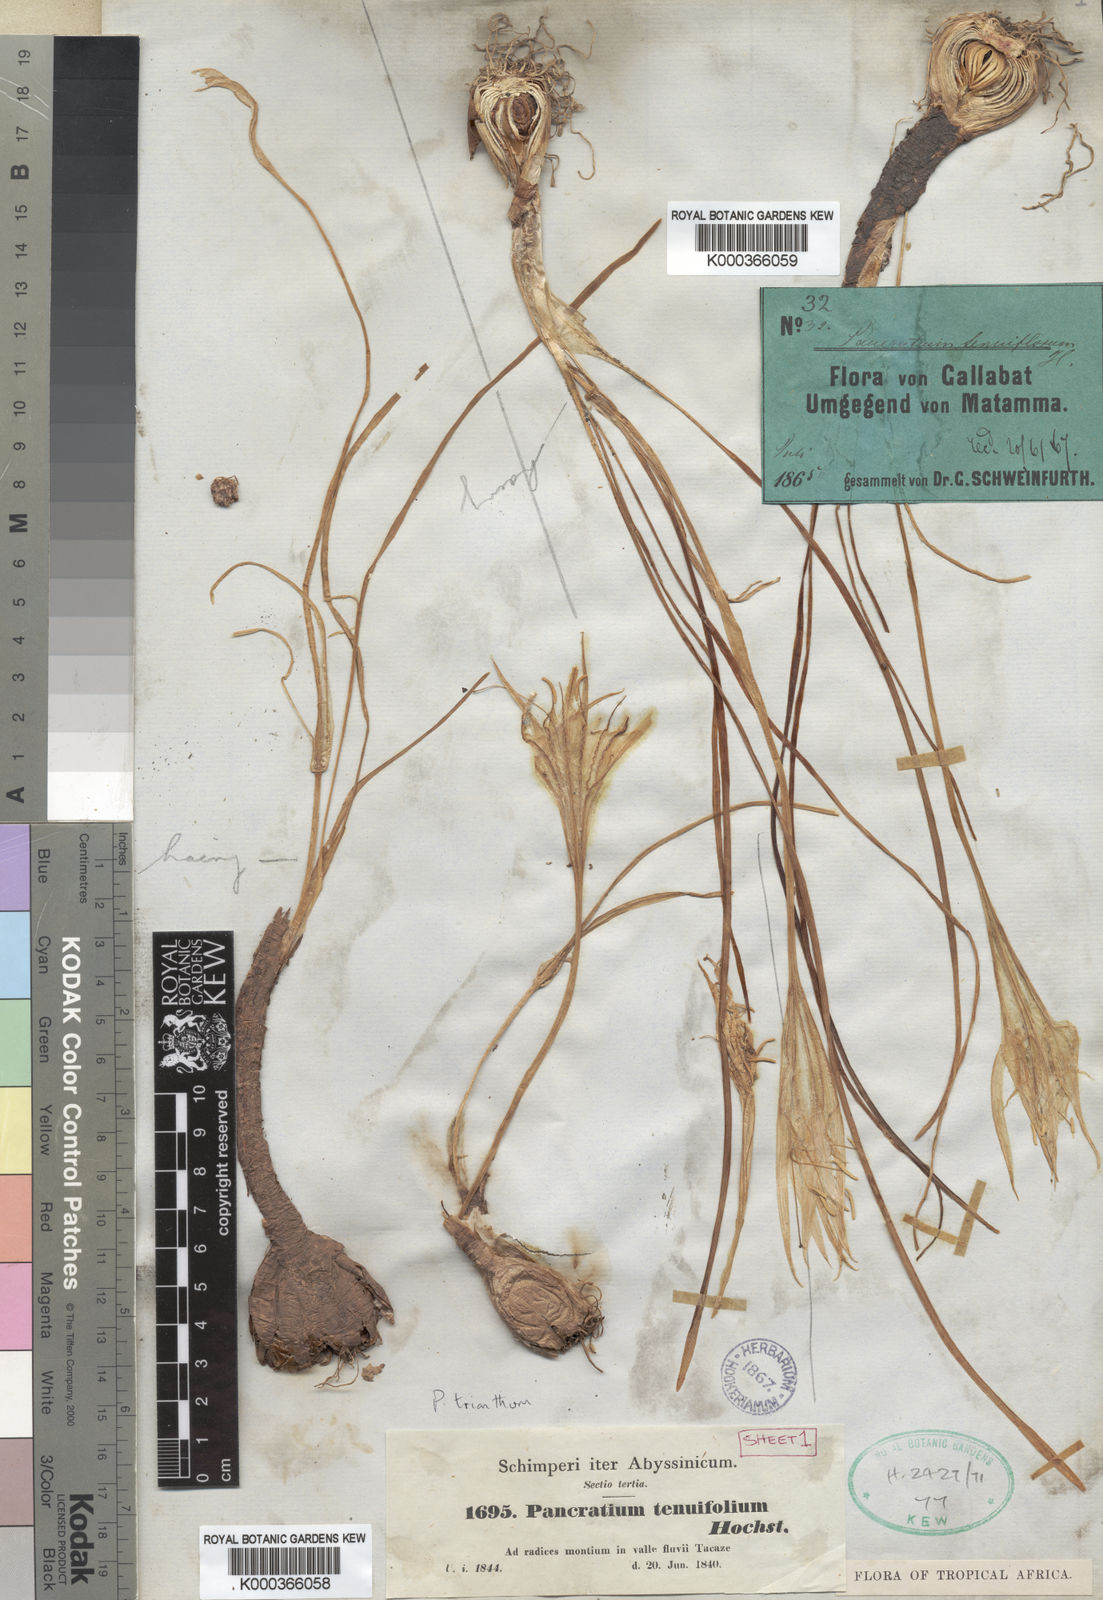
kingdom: Plantae
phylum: Tracheophyta
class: Liliopsida
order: Asparagales
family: Amaryllidaceae
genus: Pancratium
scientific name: Pancratium
